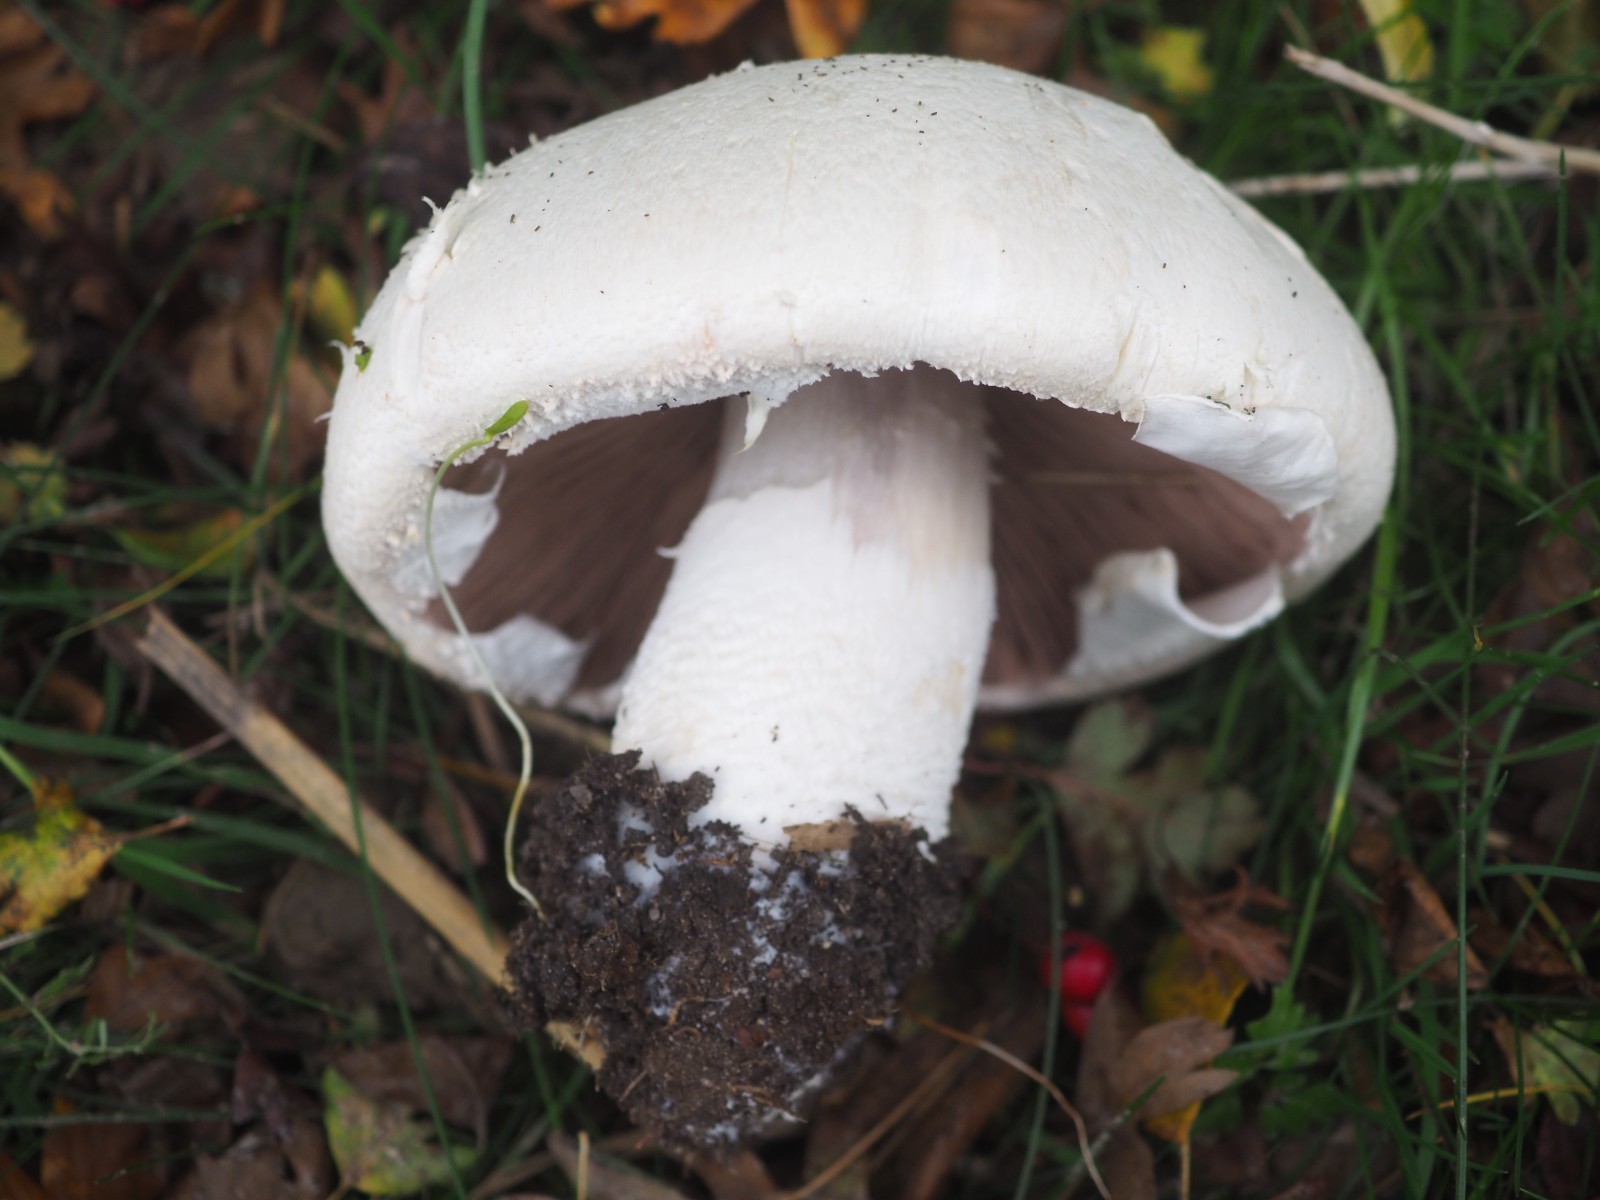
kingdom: Fungi
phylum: Basidiomycota
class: Agaricomycetes
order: Agaricales
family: Agaricaceae
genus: Agaricus
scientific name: Agaricus
